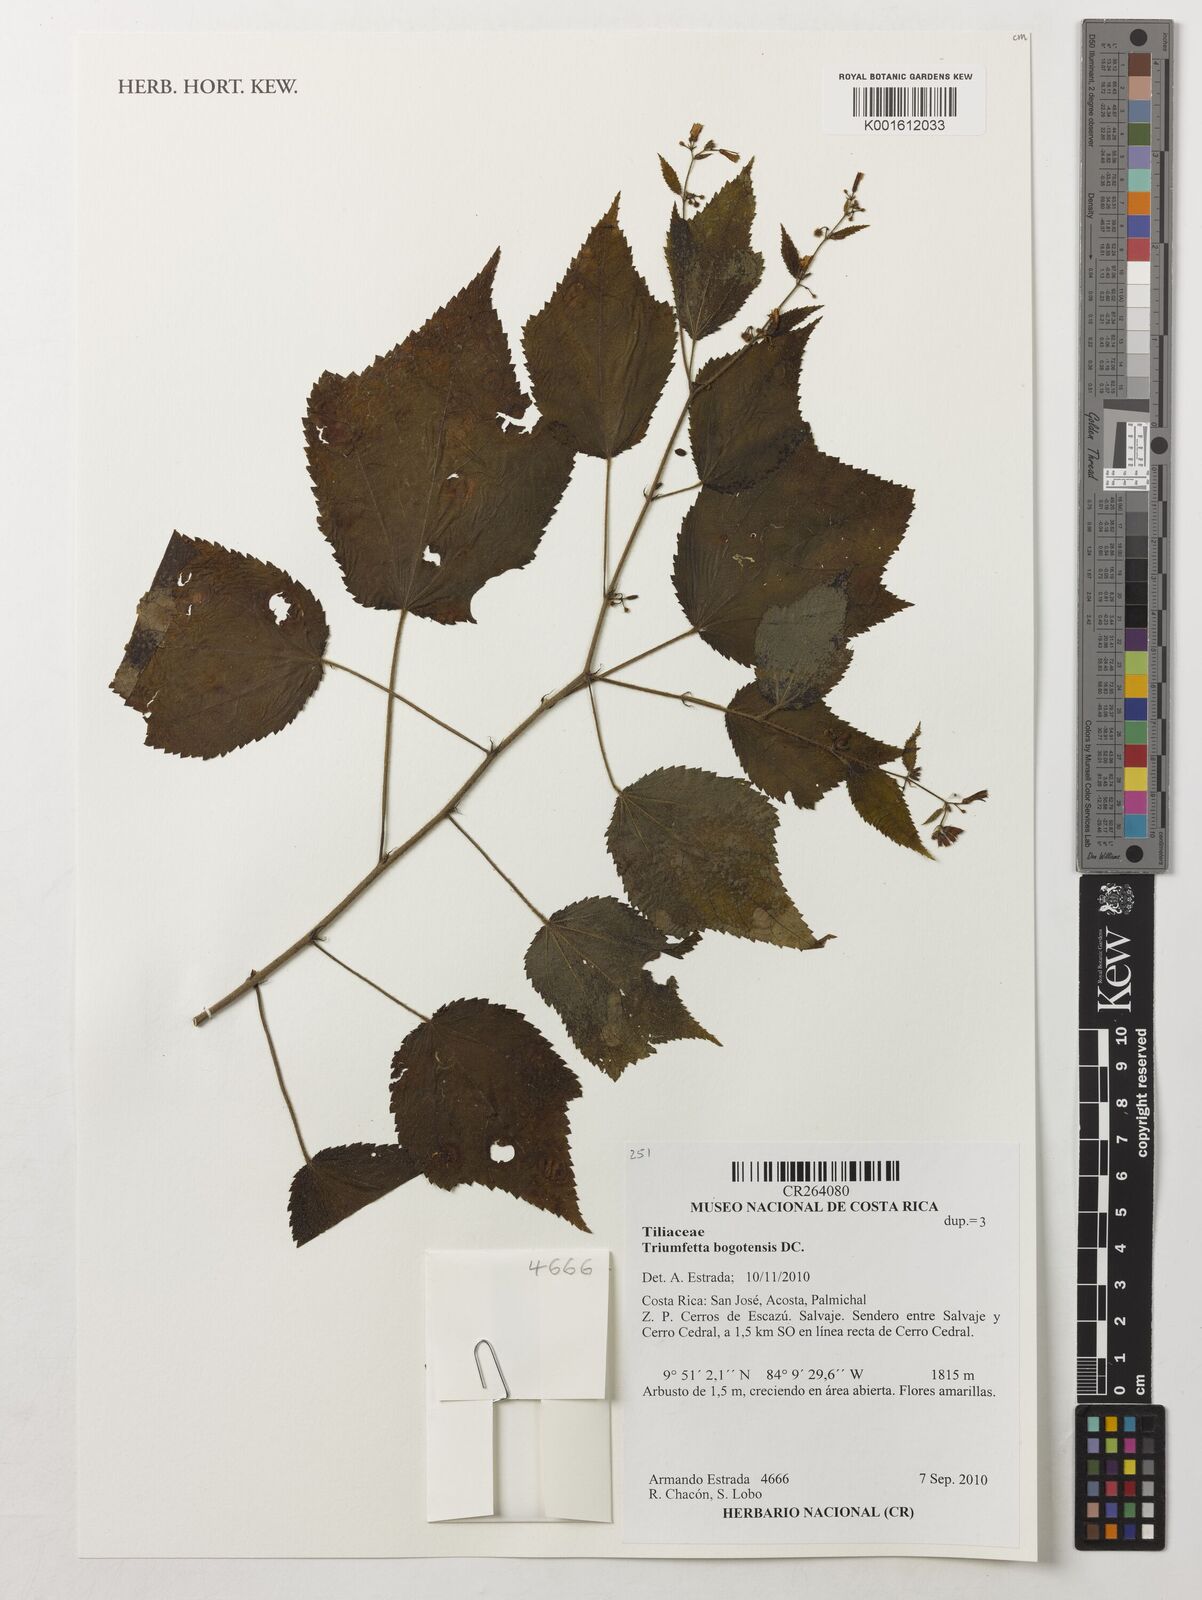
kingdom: Plantae
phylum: Tracheophyta
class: Magnoliopsida
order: Malvales
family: Malvaceae
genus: Triumfetta
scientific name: Triumfetta bogotensis
